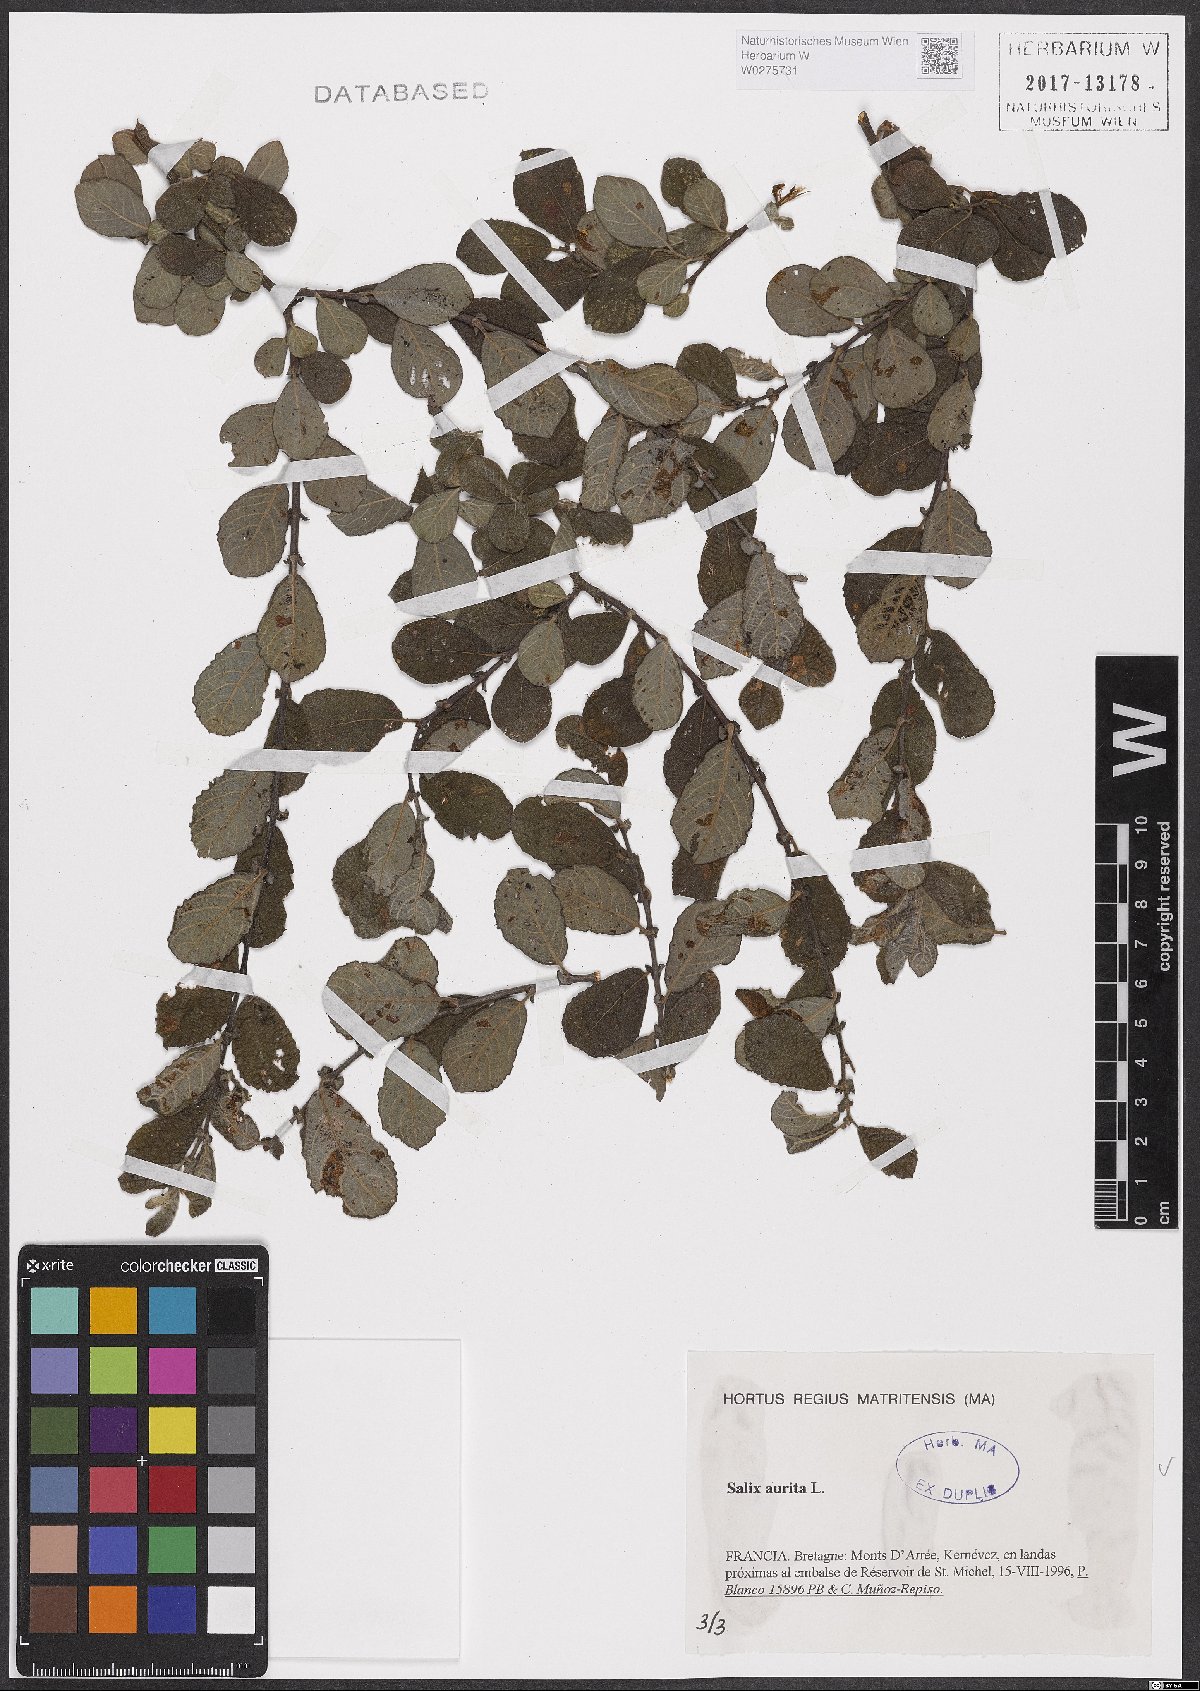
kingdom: Plantae
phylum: Tracheophyta
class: Magnoliopsida
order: Malpighiales
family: Salicaceae
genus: Salix
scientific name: Salix aurita
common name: Eared willow
